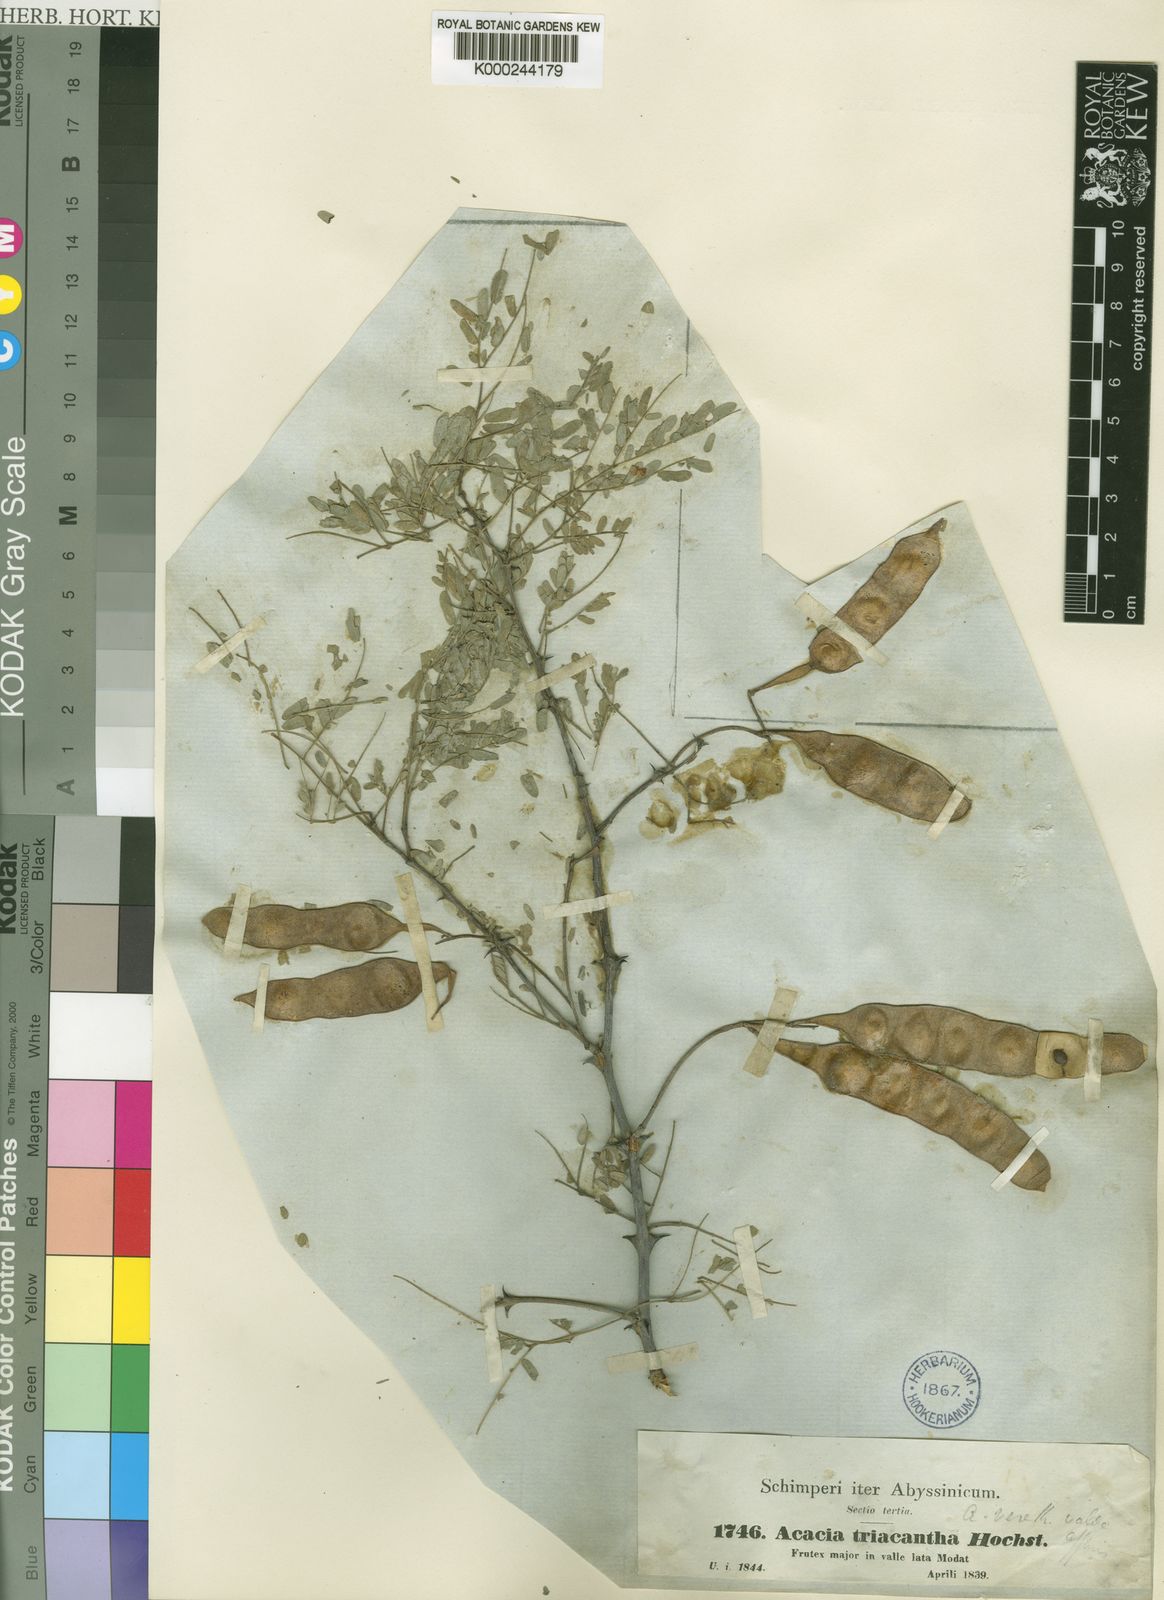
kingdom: Plantae
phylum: Tracheophyta
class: Magnoliopsida
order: Fabales
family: Fabaceae
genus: Senegalia
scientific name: Senegalia asak
